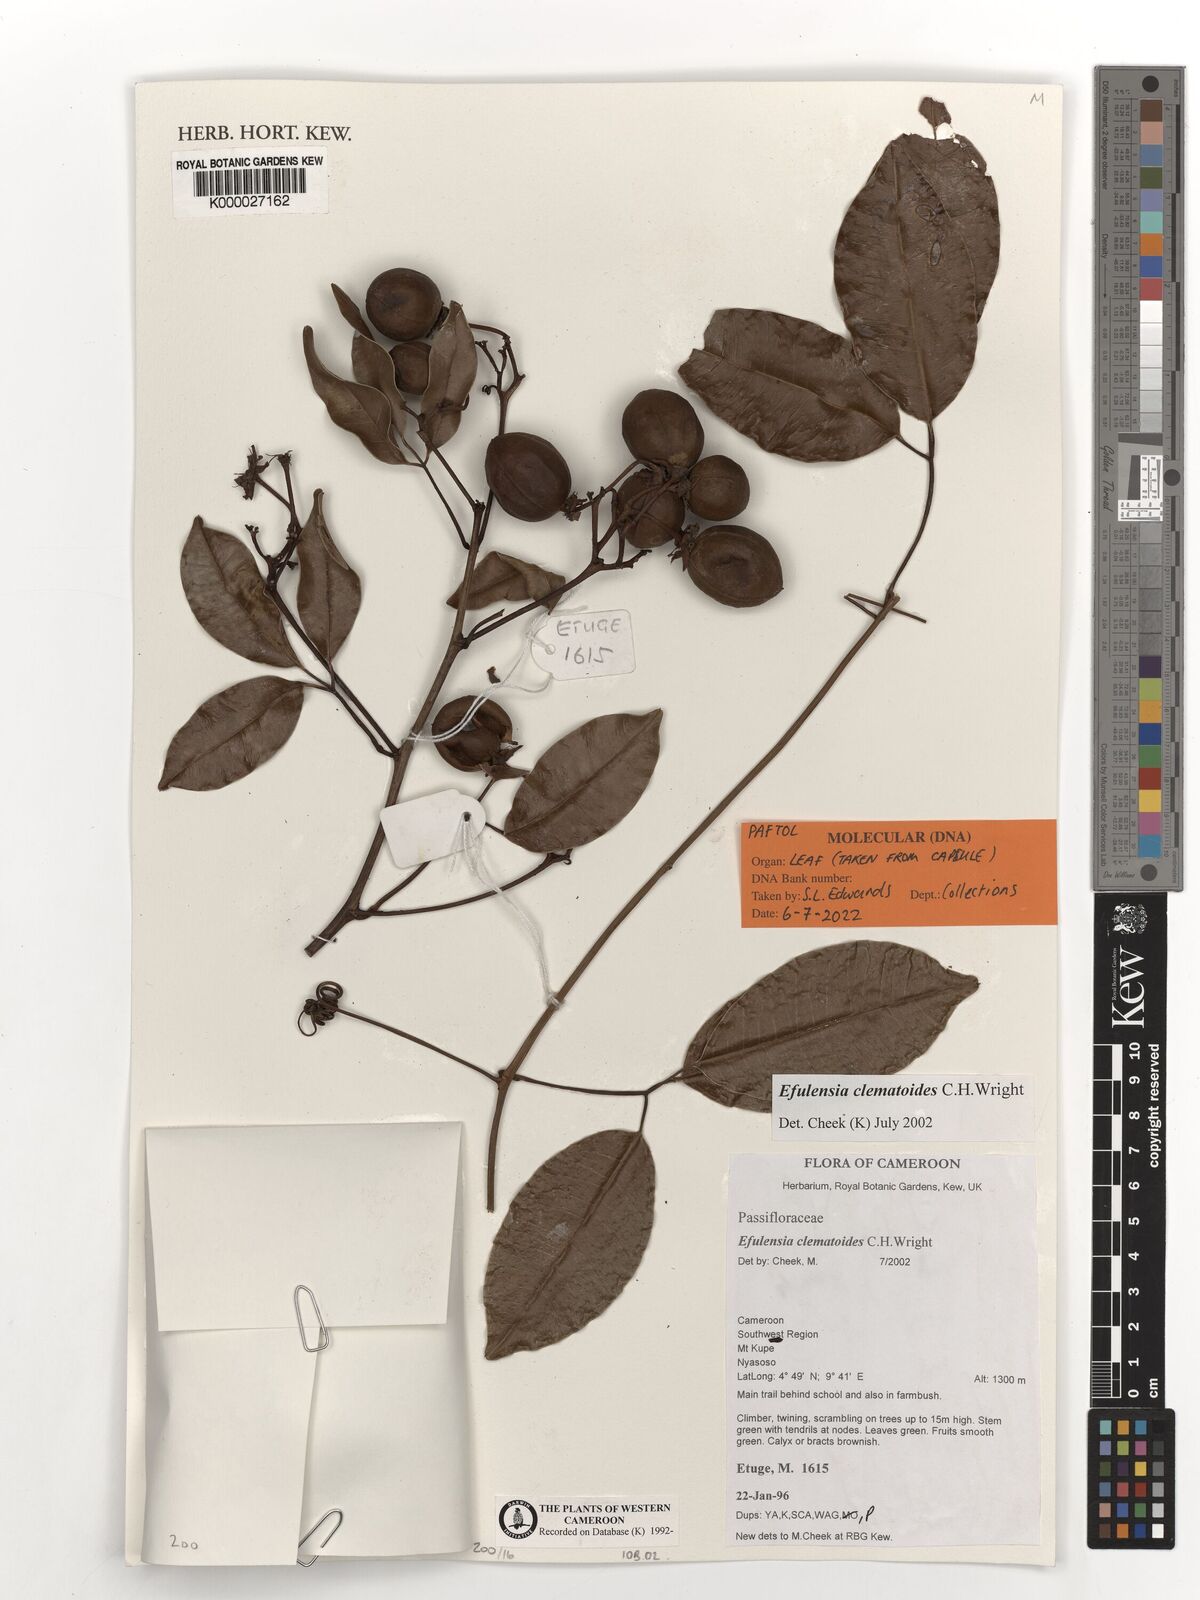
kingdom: Plantae
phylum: Tracheophyta
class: Magnoliopsida
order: Malpighiales
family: Passifloraceae
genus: Efulensia
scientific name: Efulensia clematoides
